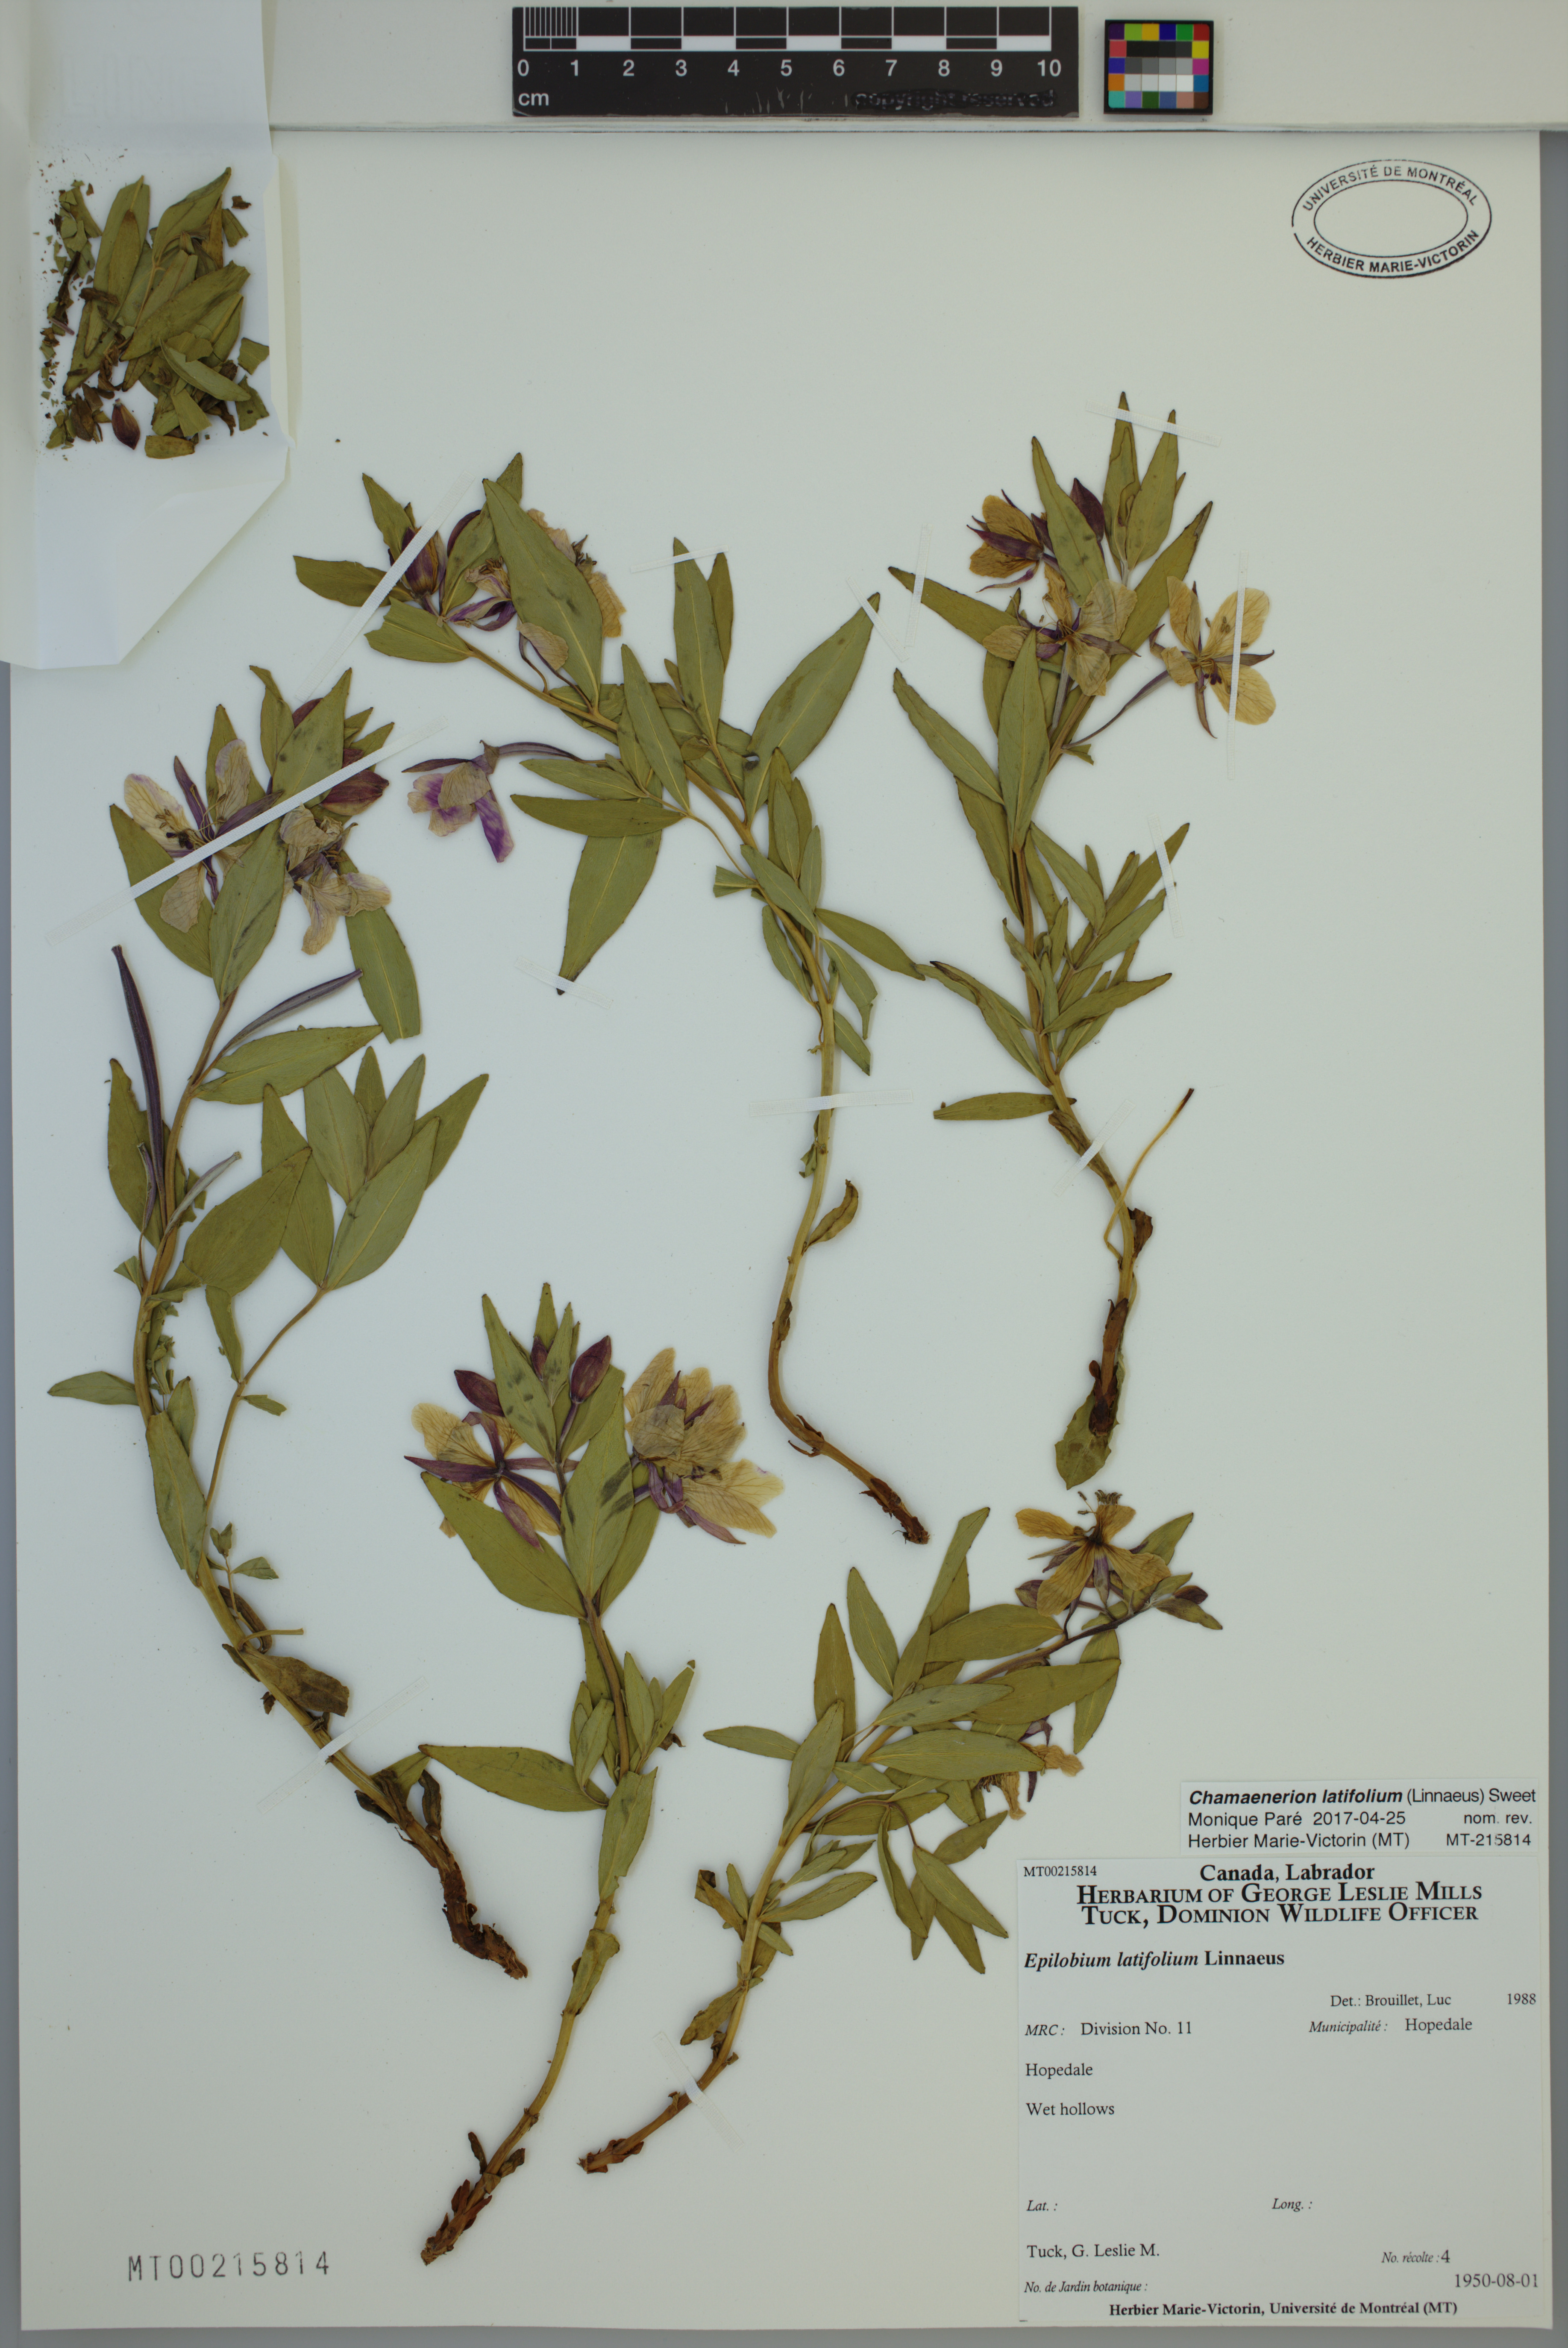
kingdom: Plantae
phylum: Tracheophyta
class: Magnoliopsida
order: Myrtales
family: Onagraceae
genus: Chamaenerion
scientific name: Chamaenerion latifolium
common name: Dwarf fireweed
